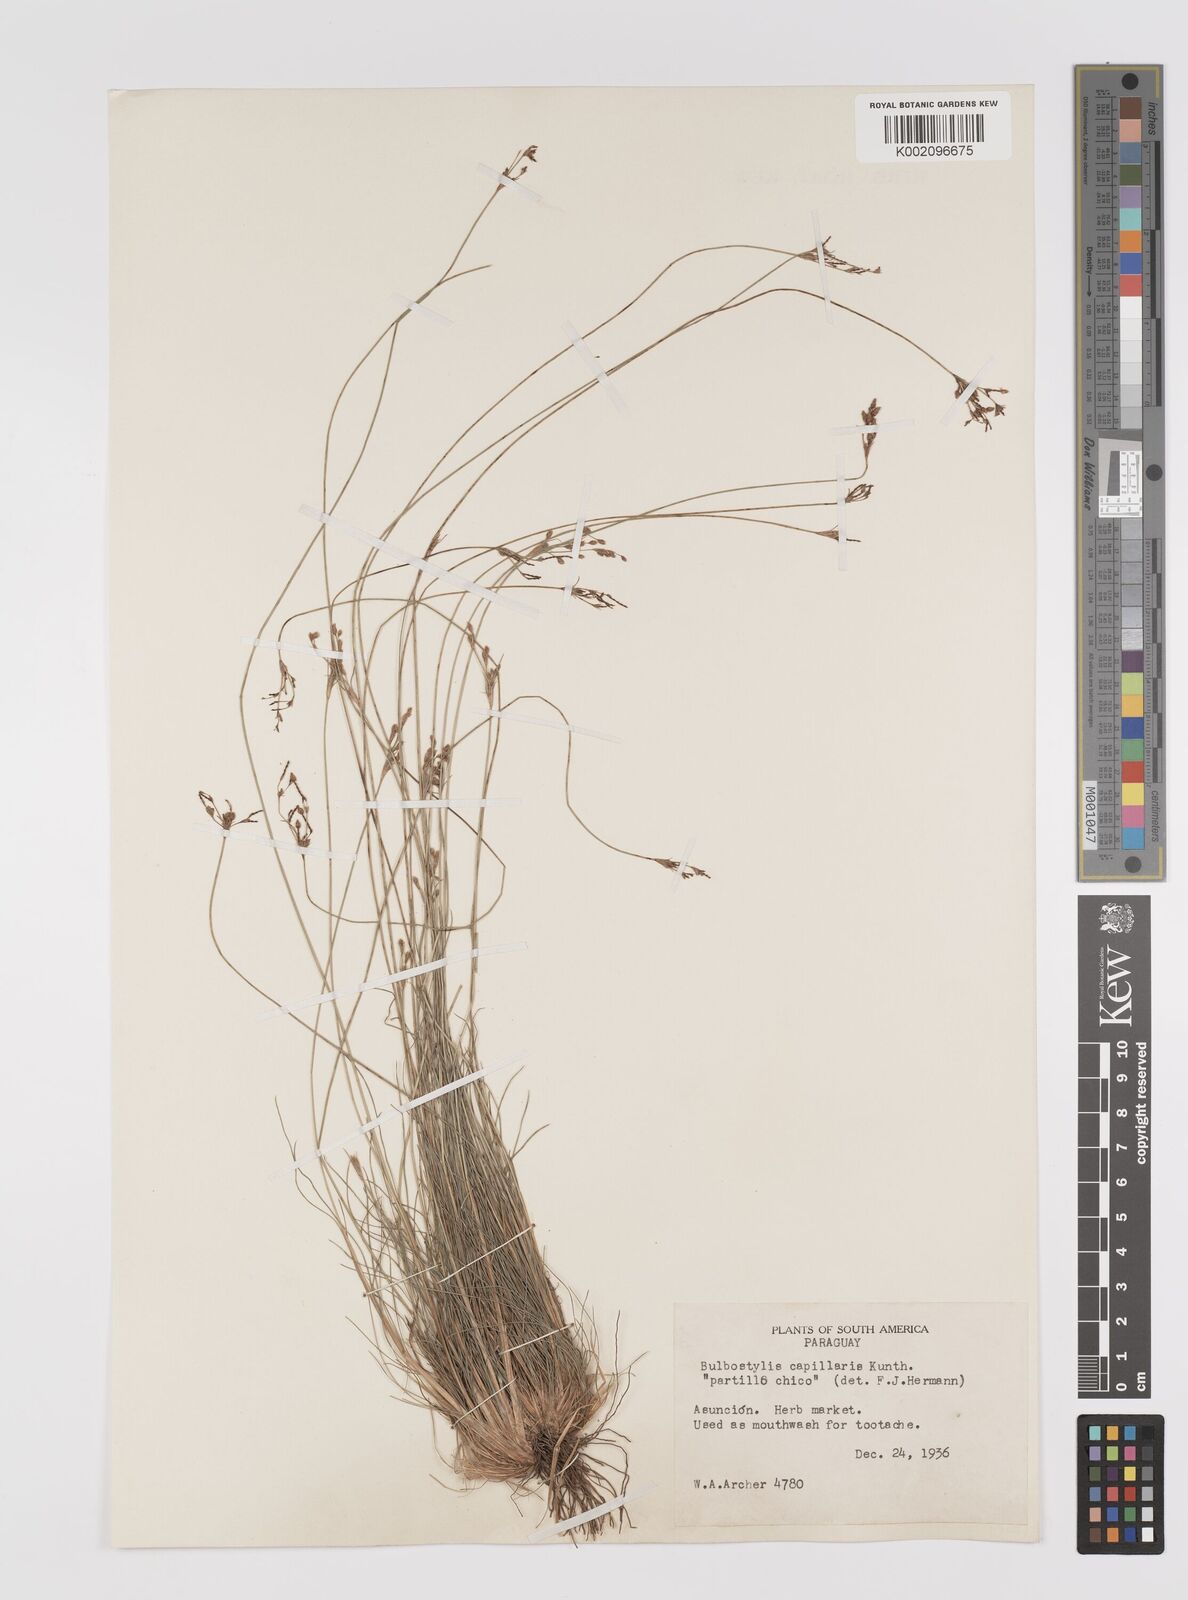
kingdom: Plantae
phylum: Tracheophyta
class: Liliopsida
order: Poales
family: Cyperaceae
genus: Bulbostylis
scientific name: Bulbostylis capillaris
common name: Densetuft hairsedge
